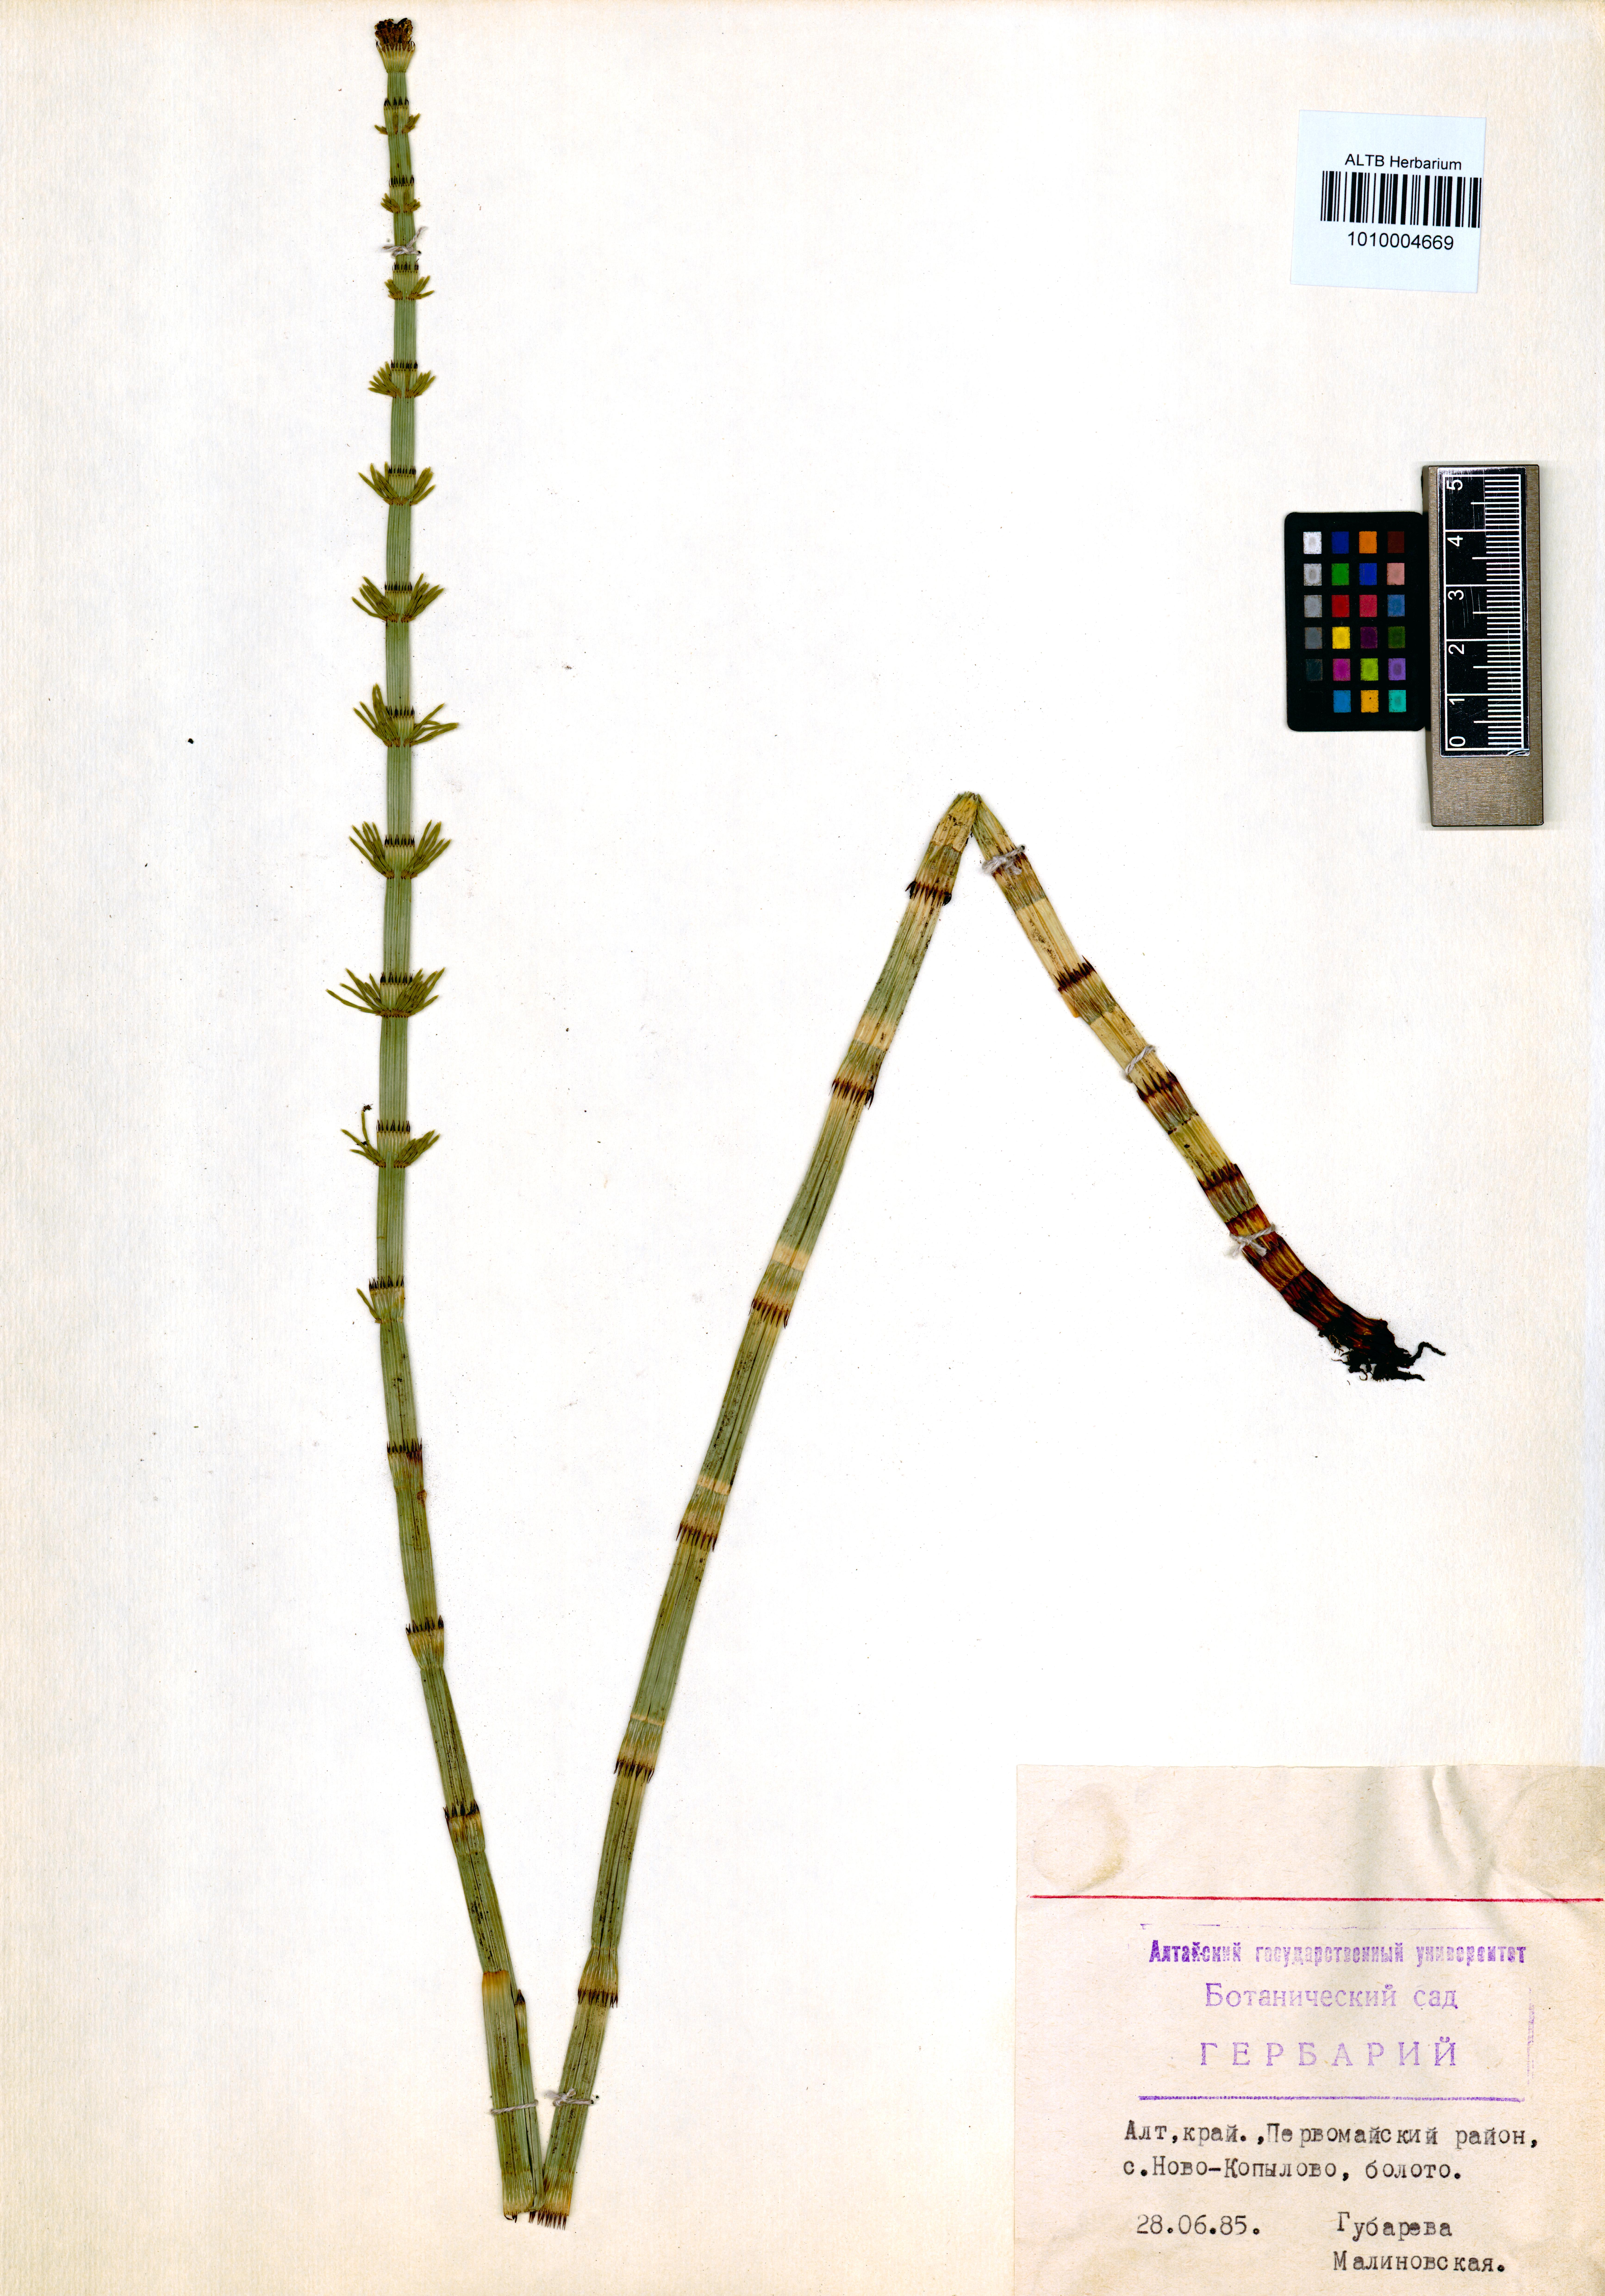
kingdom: Plantae
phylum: Tracheophyta
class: Polypodiopsida
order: Equisetales
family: Equisetaceae
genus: Equisetum
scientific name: Equisetum fluviatile
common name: Water horsetail
